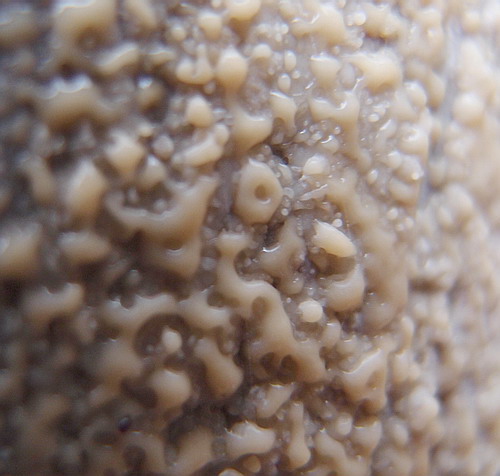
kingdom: Fungi
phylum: Basidiomycota
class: Microbotryomycetes
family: Colacogloeaceae
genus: Colacogloea
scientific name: Colacogloea effusa
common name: klar slimklat
